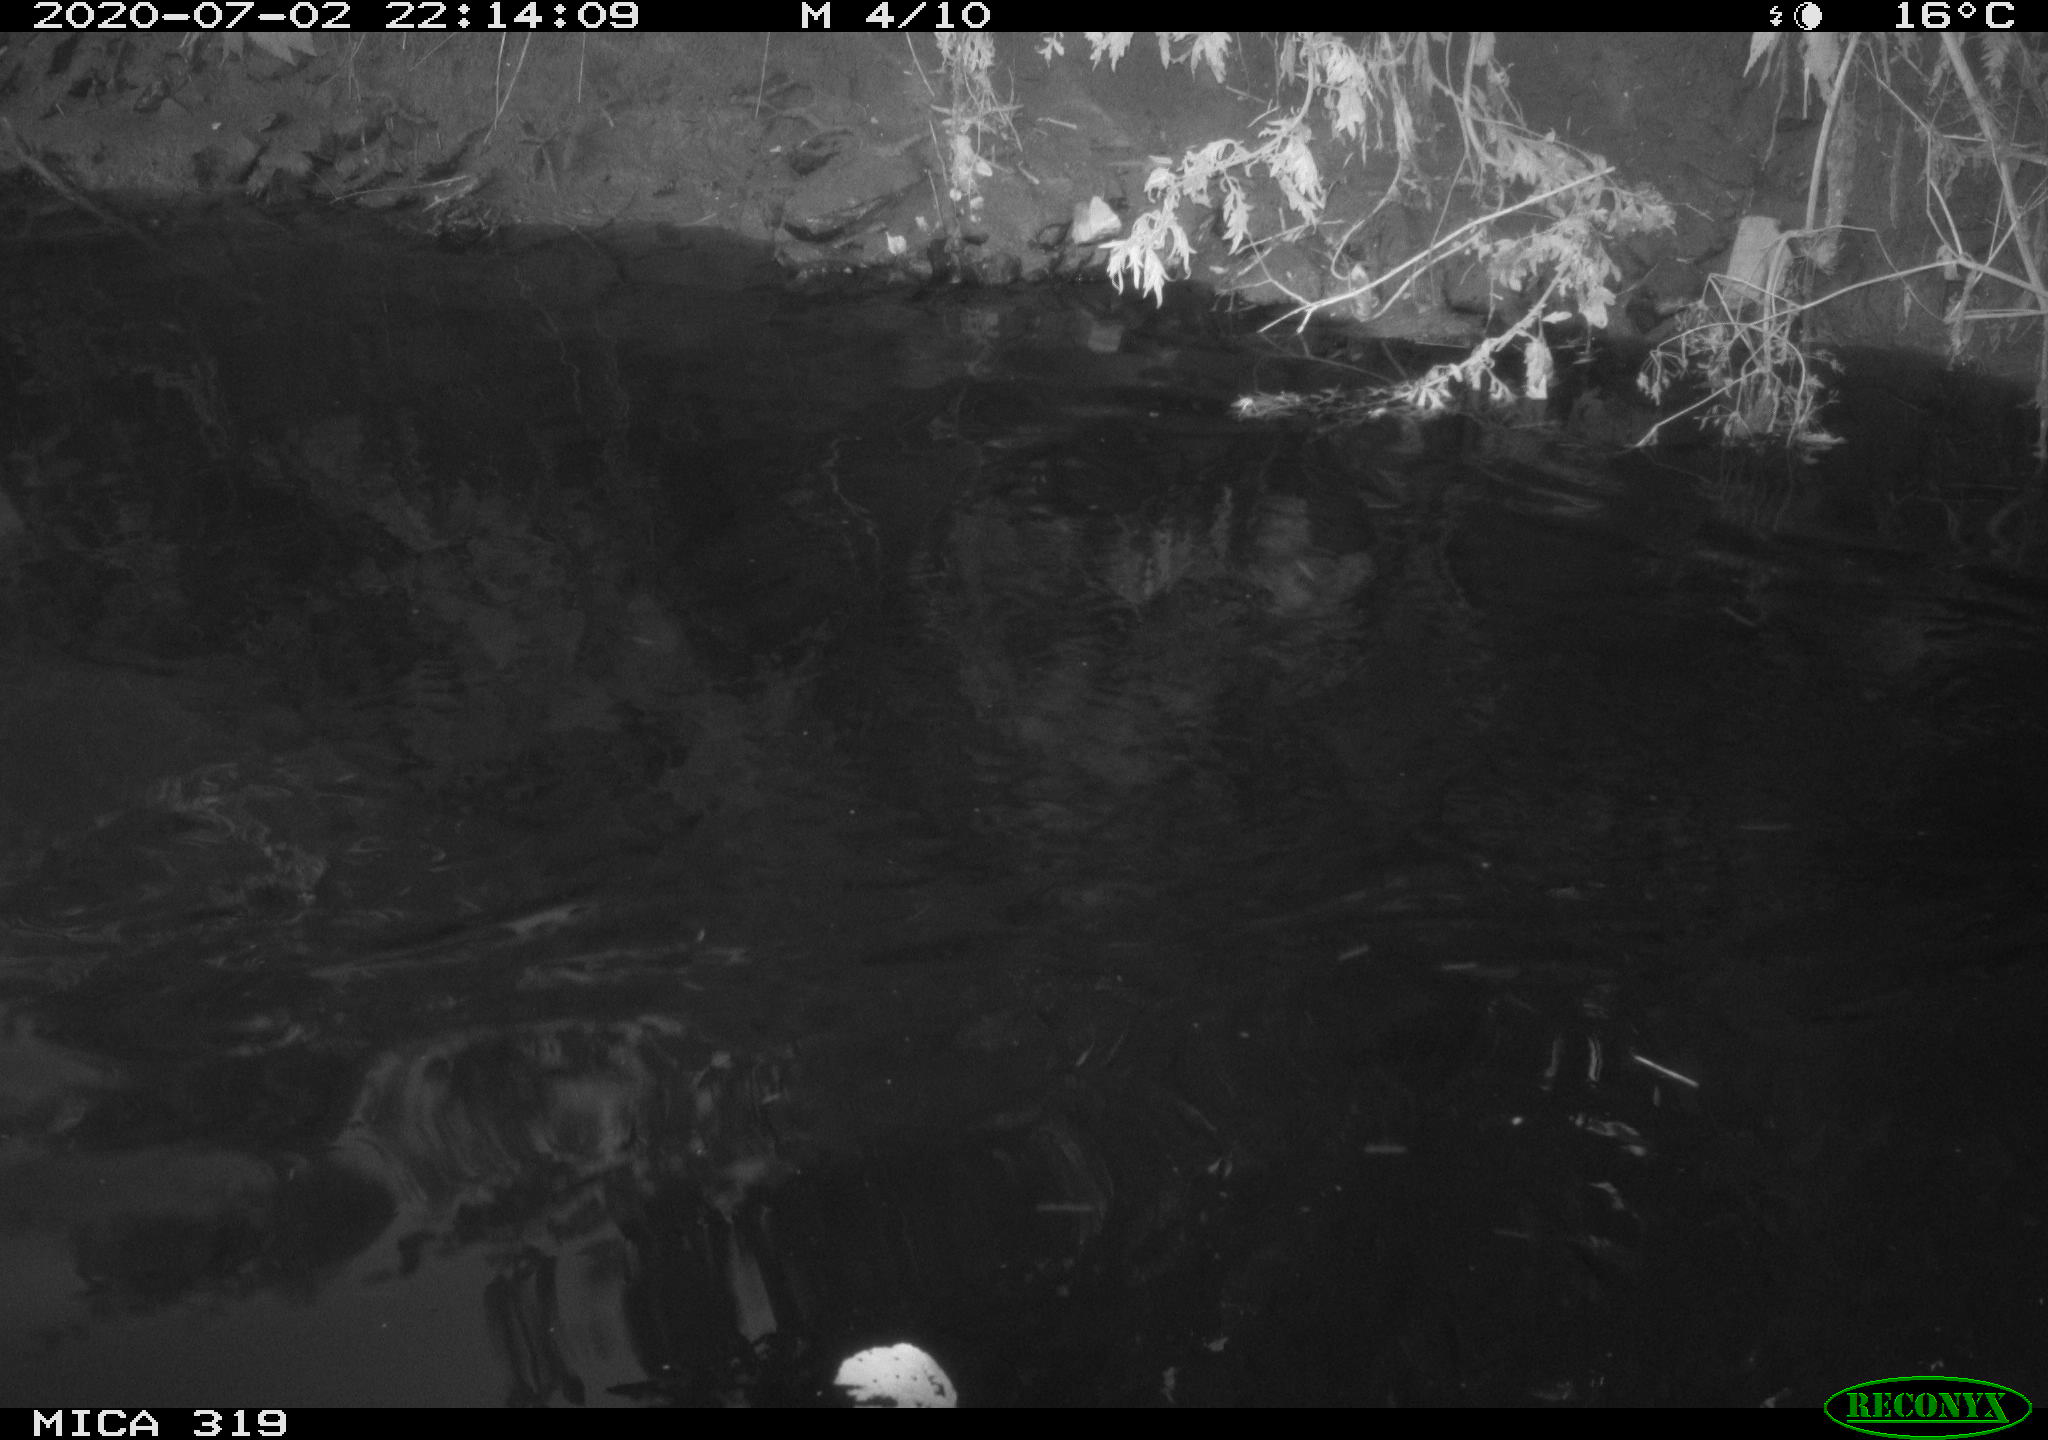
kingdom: Animalia
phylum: Chordata
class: Aves
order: Anseriformes
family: Anatidae
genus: Anas
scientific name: Anas platyrhynchos
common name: Mallard
